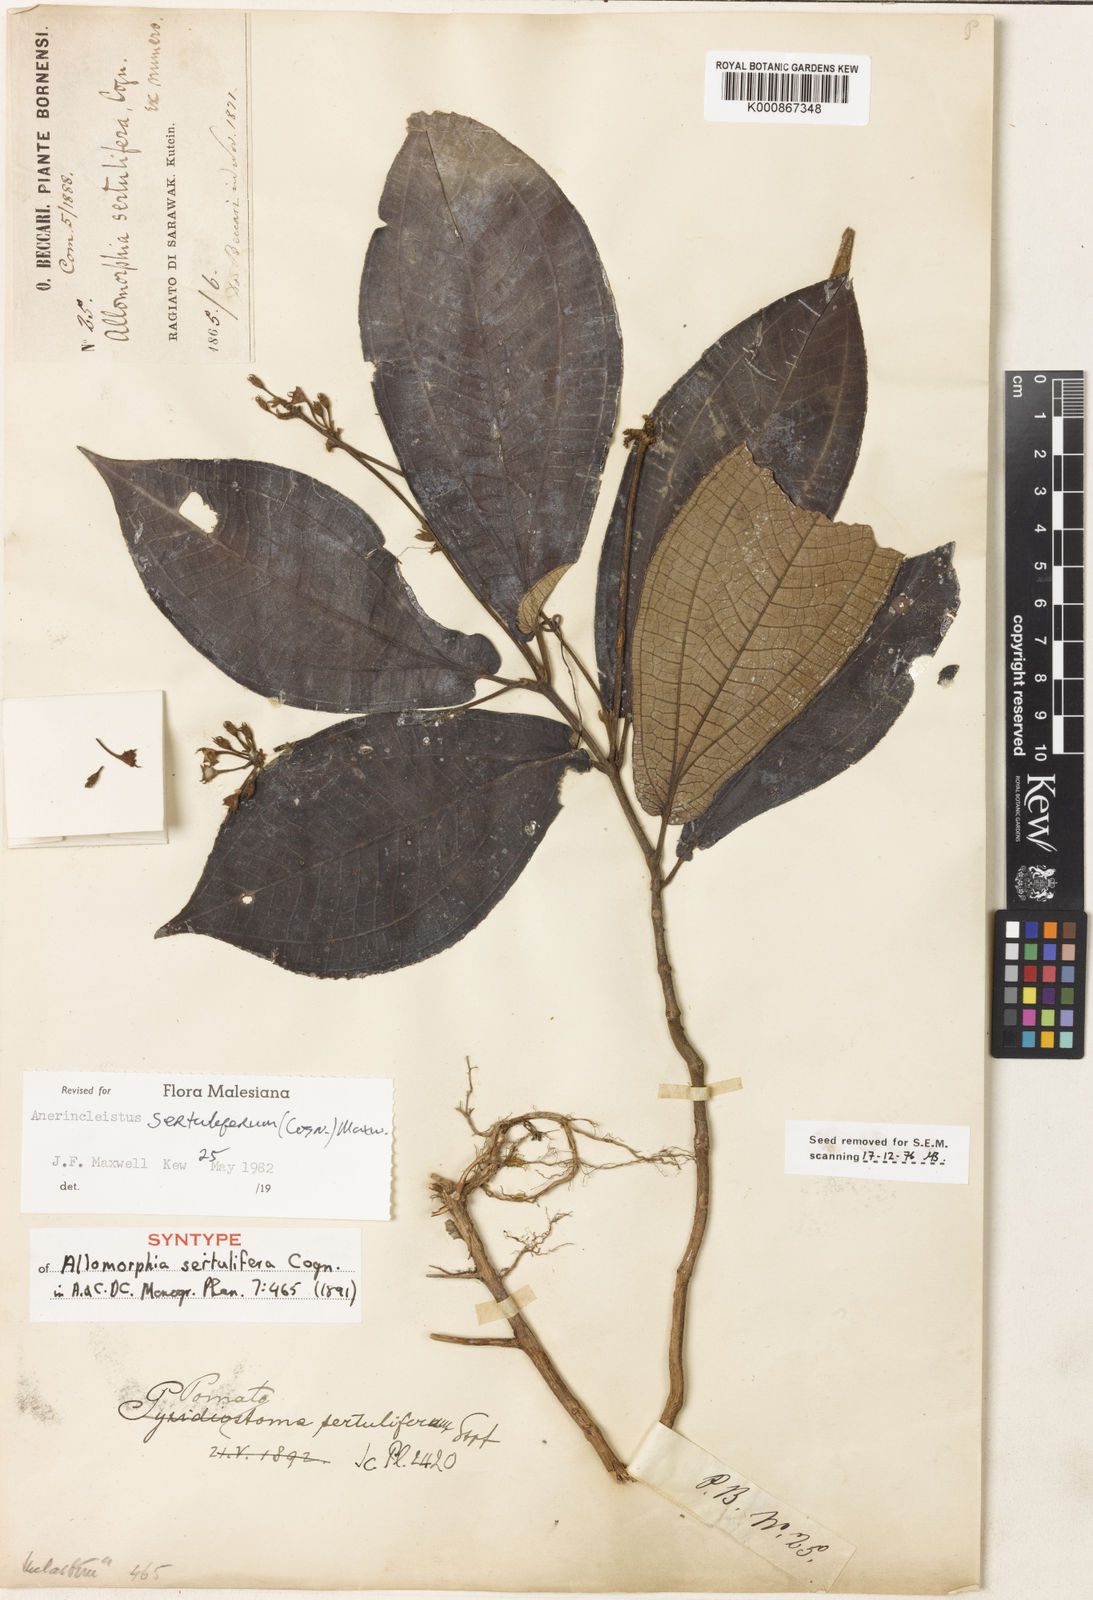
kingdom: Plantae
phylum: Tracheophyta
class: Magnoliopsida
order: Myrtales
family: Melastomataceae
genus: Anerincleistus
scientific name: Anerincleistus sertuliferum
